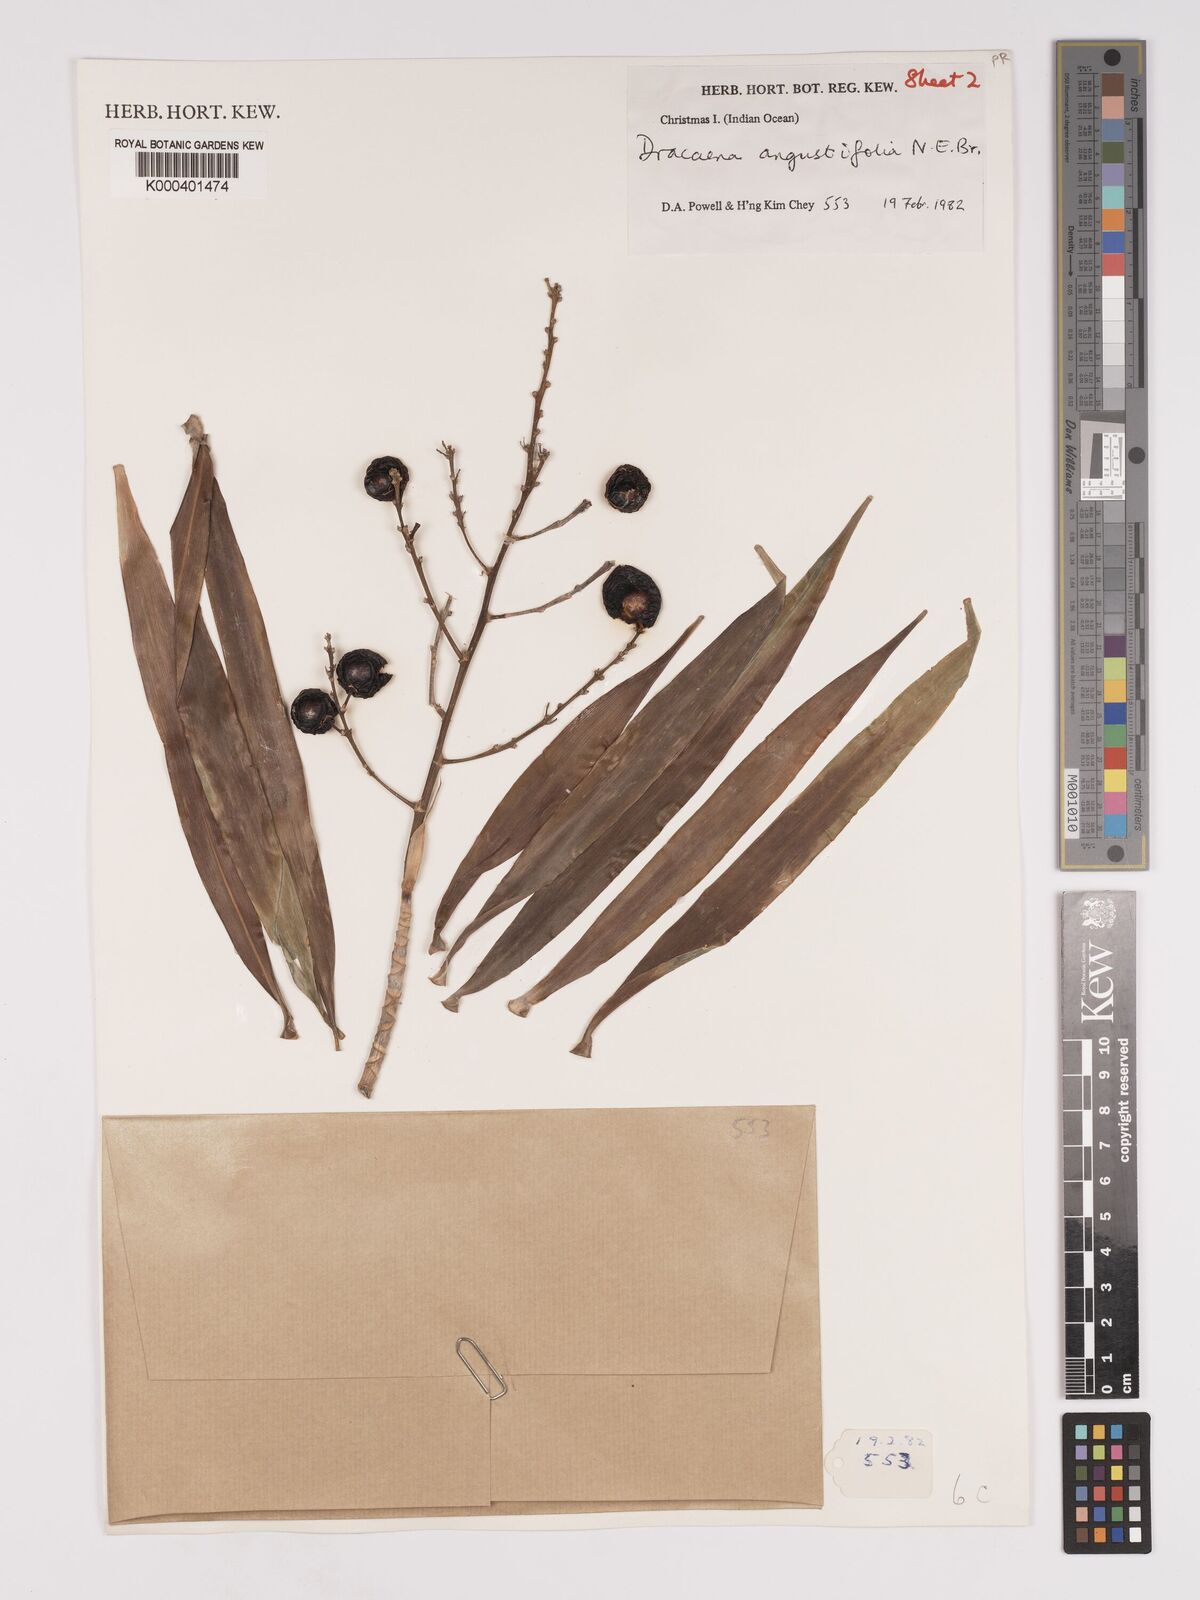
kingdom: Plantae
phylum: Tracheophyta
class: Liliopsida
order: Asparagales
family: Asparagaceae
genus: Dracaena
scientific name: Dracaena angustifolia
